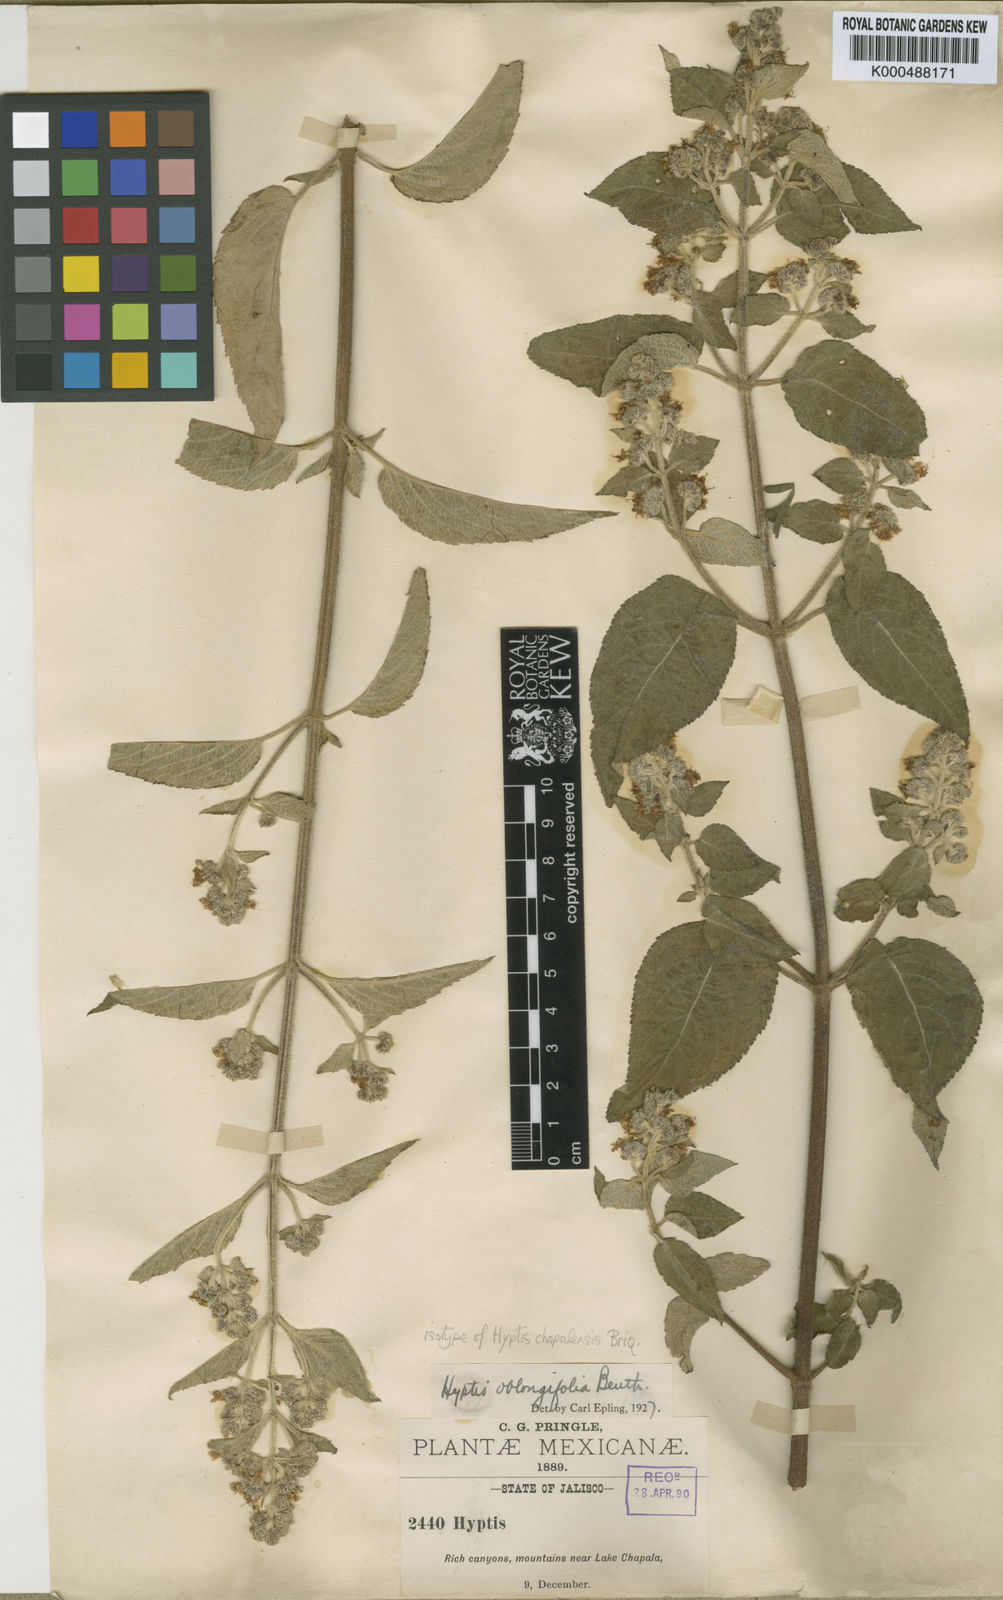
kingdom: Plantae
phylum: Tracheophyta
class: Magnoliopsida
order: Lamiales
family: Lamiaceae
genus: Mesosphaerum
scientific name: Mesosphaerum oblongifolium
